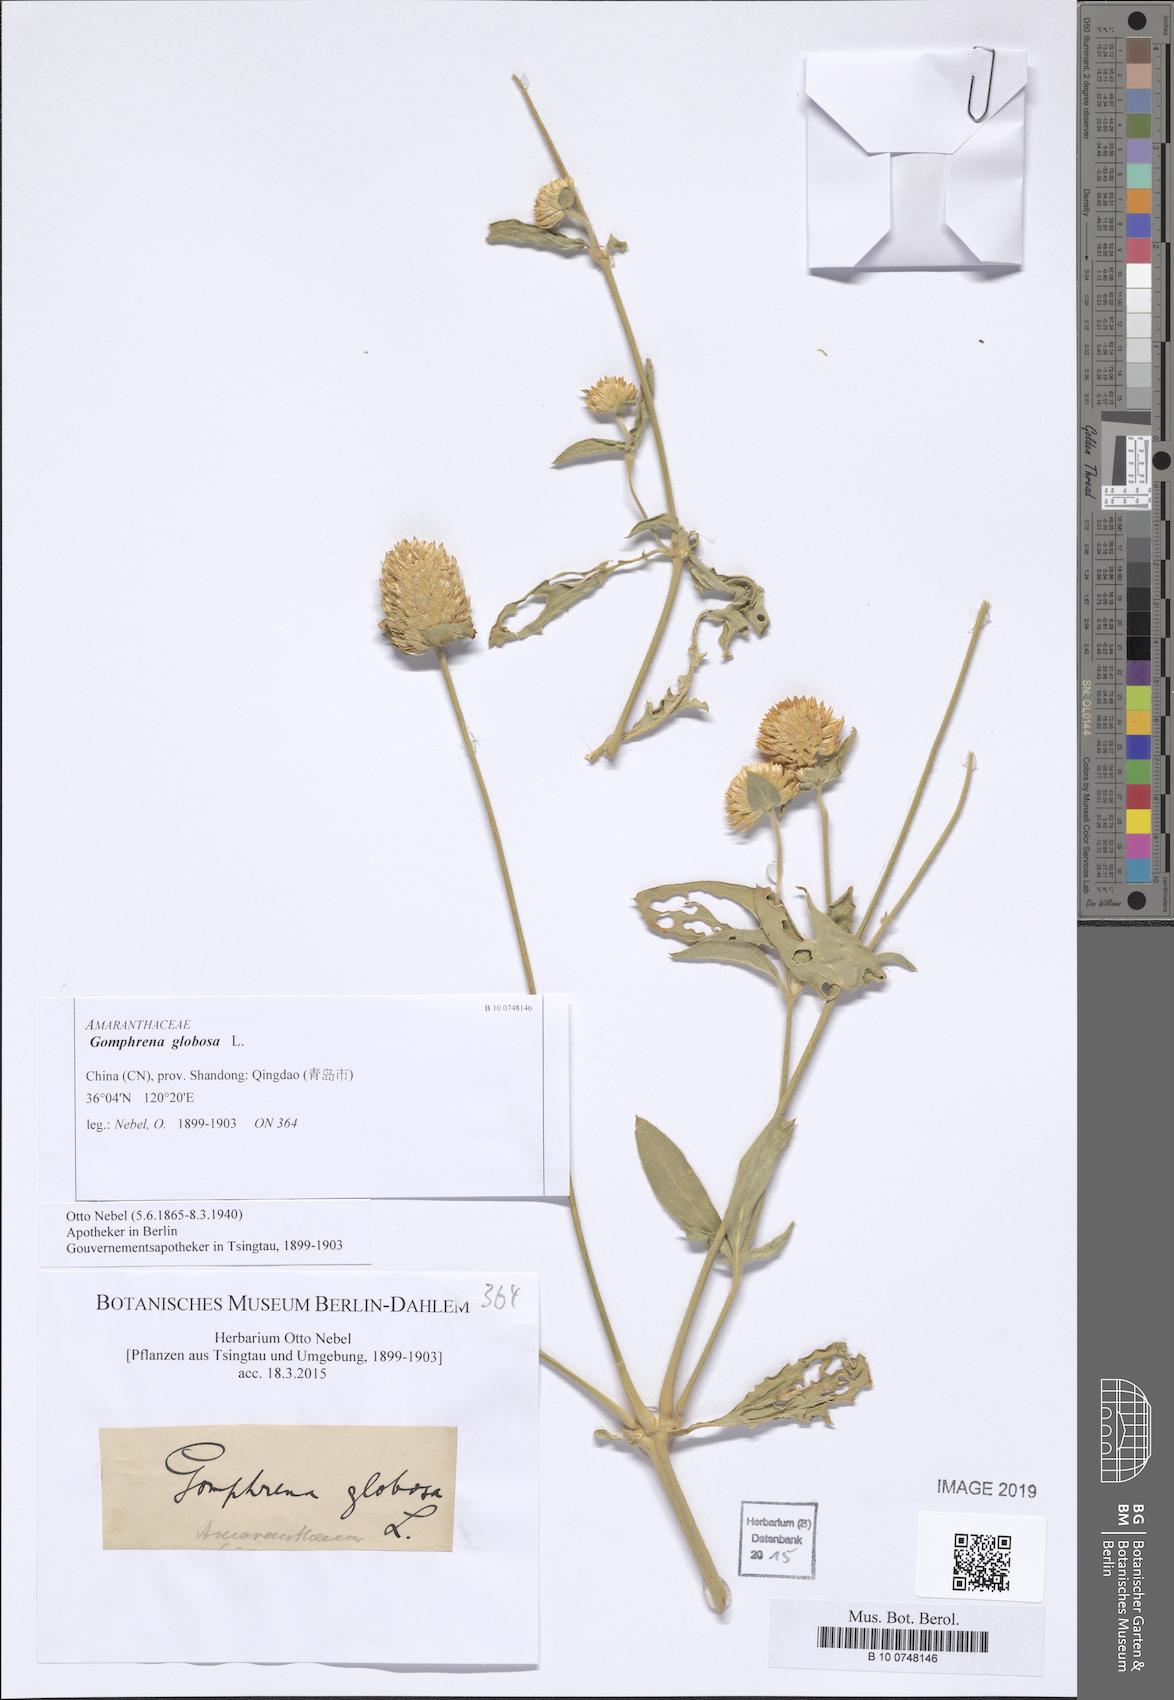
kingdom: Plantae
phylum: Tracheophyta
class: Magnoliopsida
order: Caryophyllales
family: Amaranthaceae
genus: Gomphrena
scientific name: Gomphrena globosa
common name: Common globe amaranth
